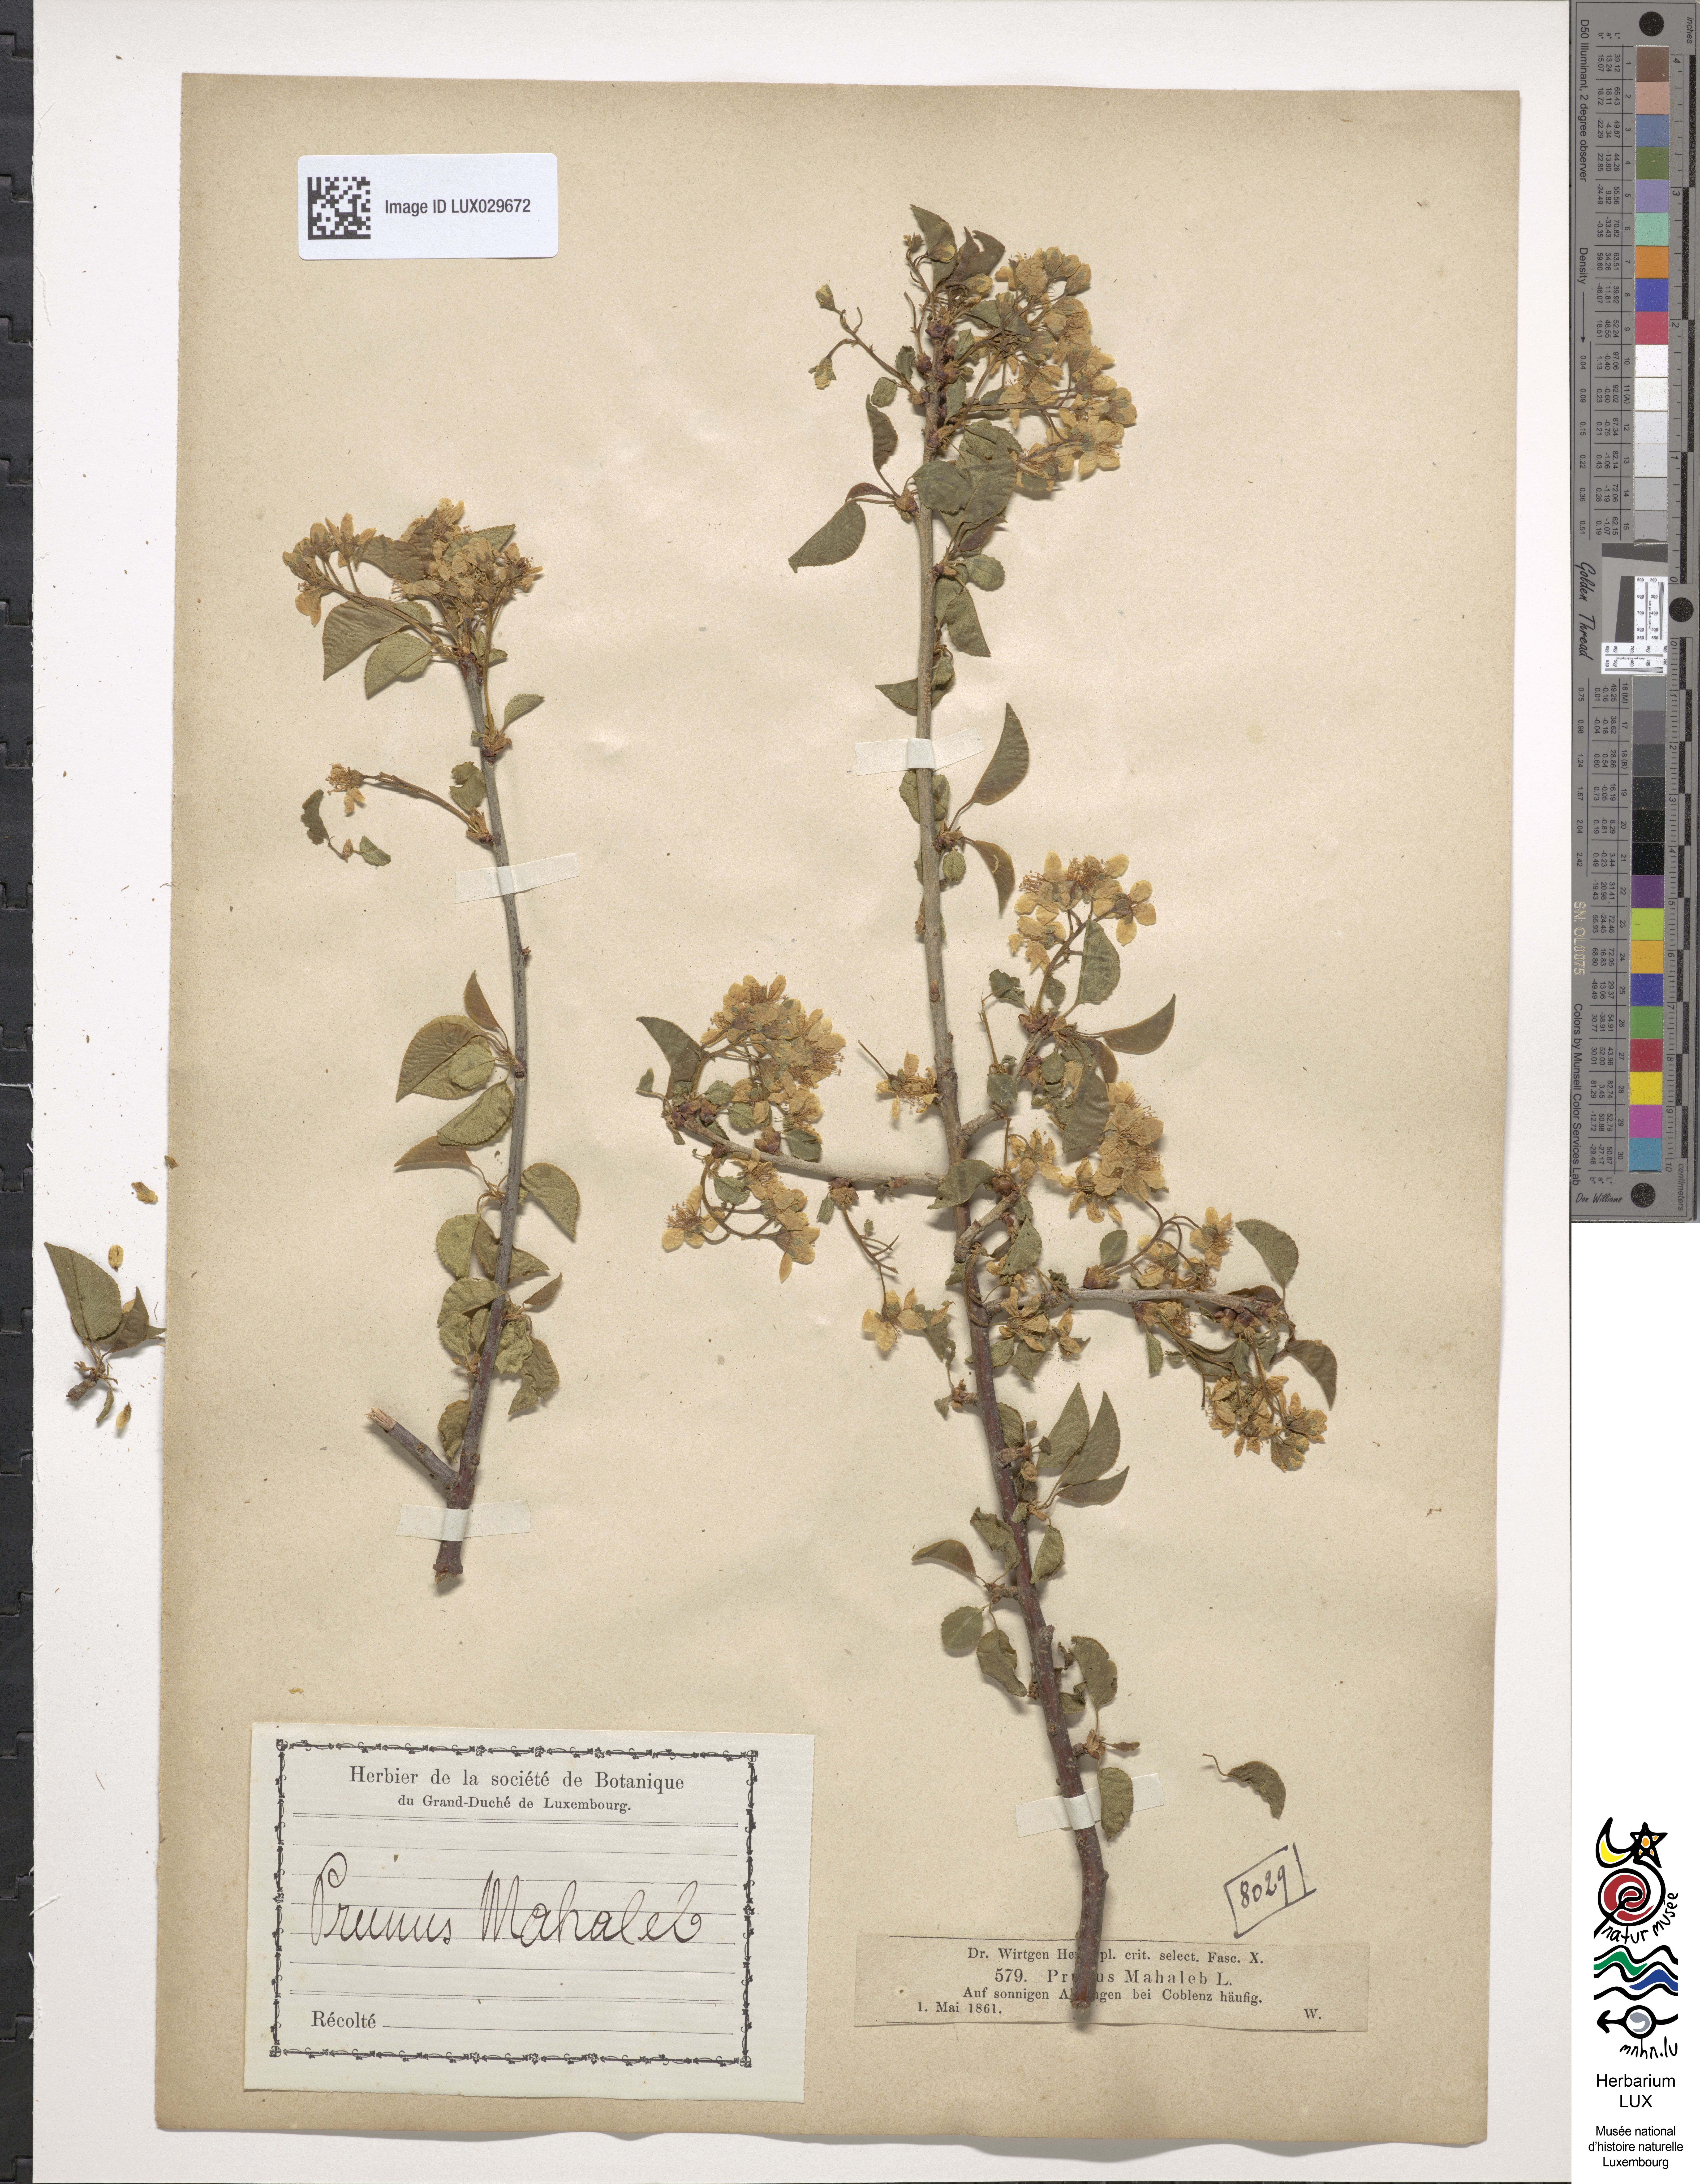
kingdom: Plantae
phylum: Tracheophyta
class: Magnoliopsida
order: Rosales
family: Rosaceae
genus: Prunus
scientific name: Prunus mahaleb
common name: Mahaleb cherry
